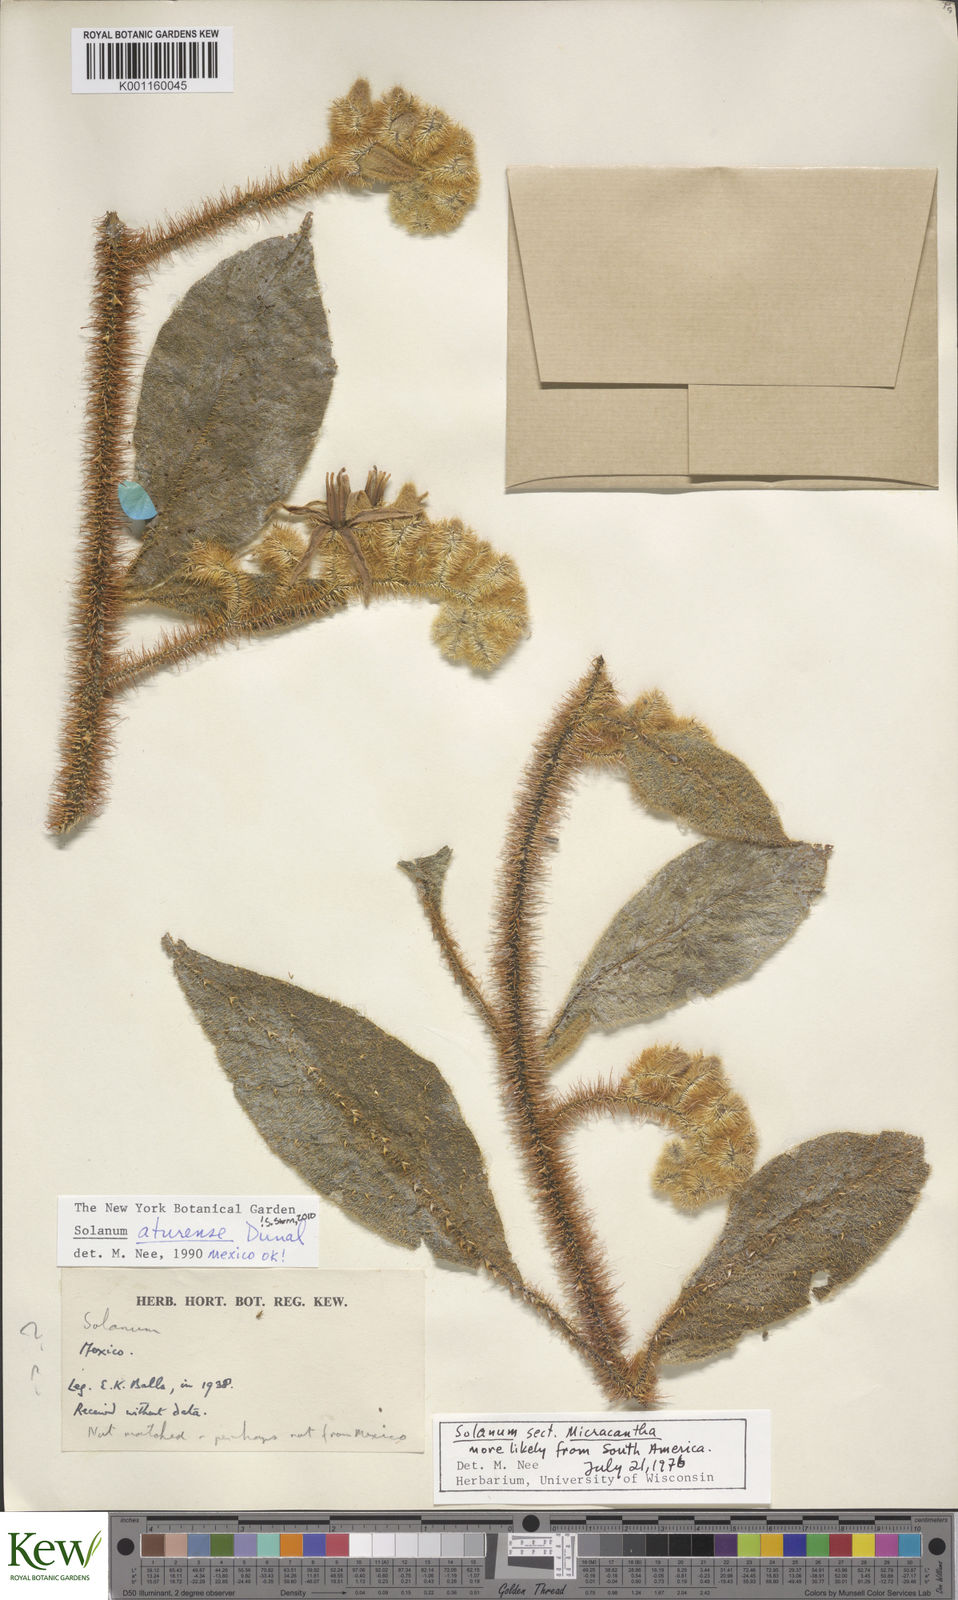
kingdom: Plantae
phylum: Tracheophyta
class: Magnoliopsida
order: Solanales
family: Solanaceae
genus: Solanum
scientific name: Solanum aturense
